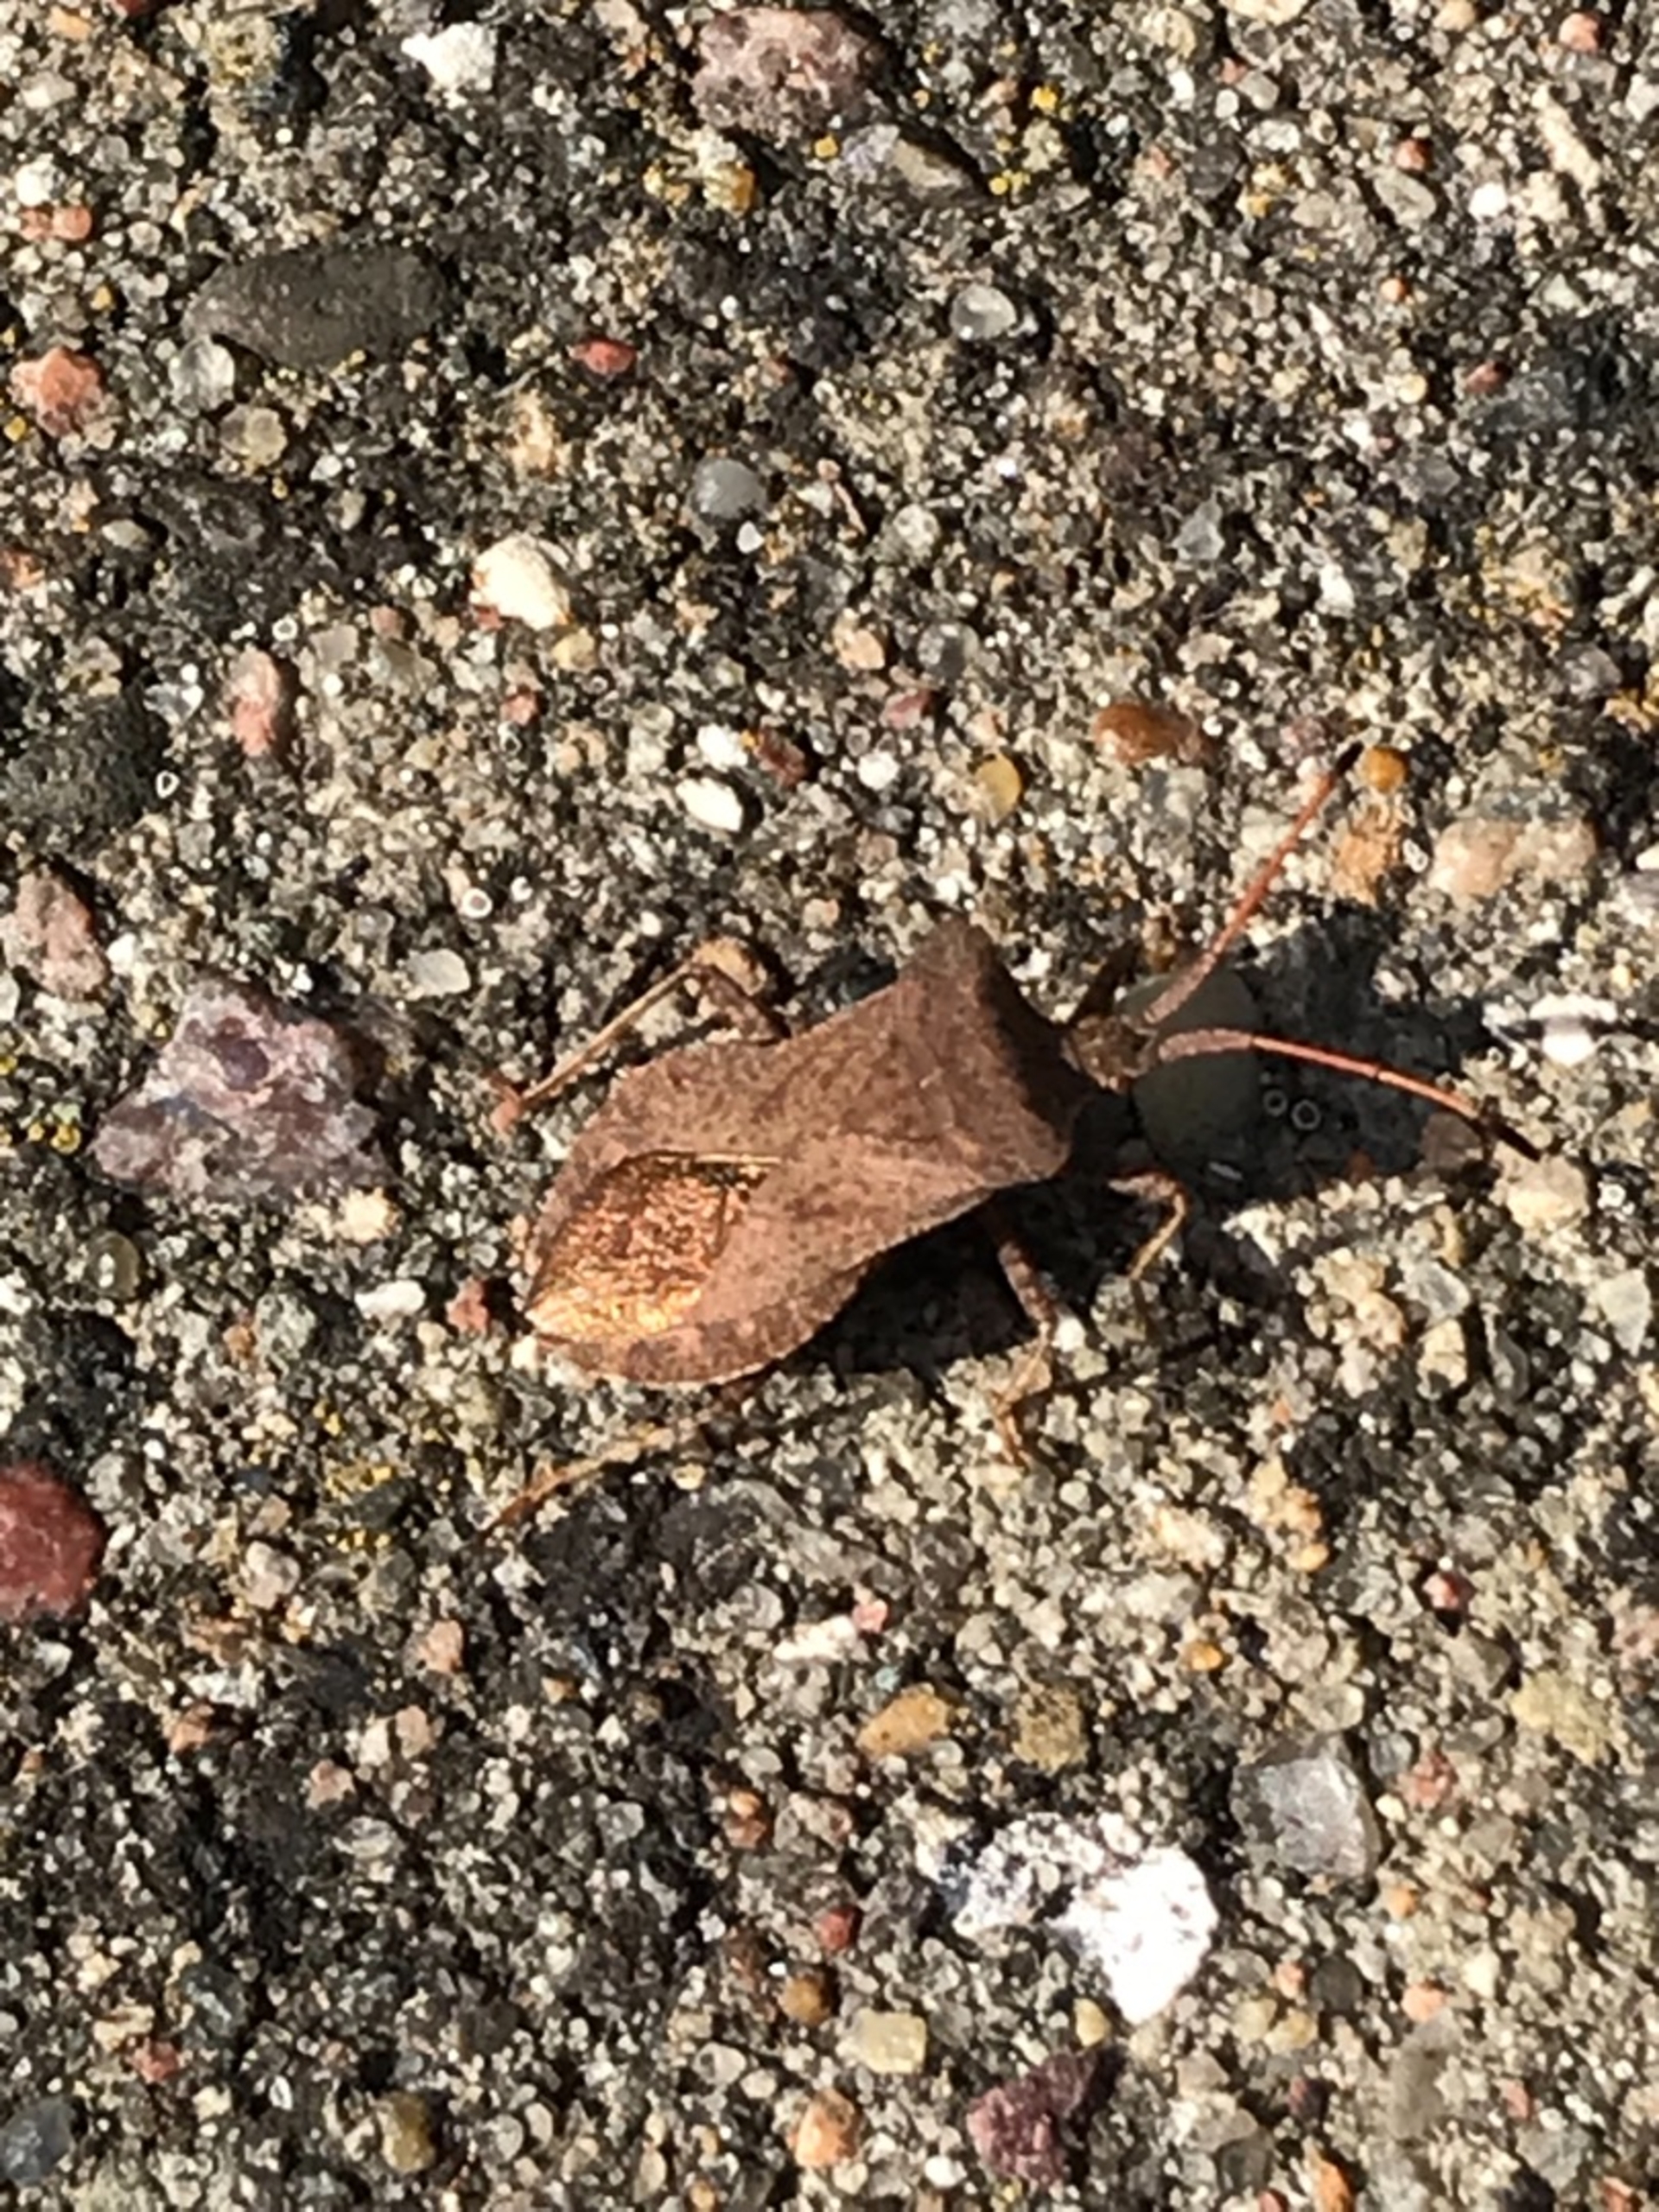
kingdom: Animalia
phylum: Arthropoda
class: Insecta
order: Hemiptera
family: Coreidae
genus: Coreus
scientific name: Coreus marginatus
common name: Skræppetæge
